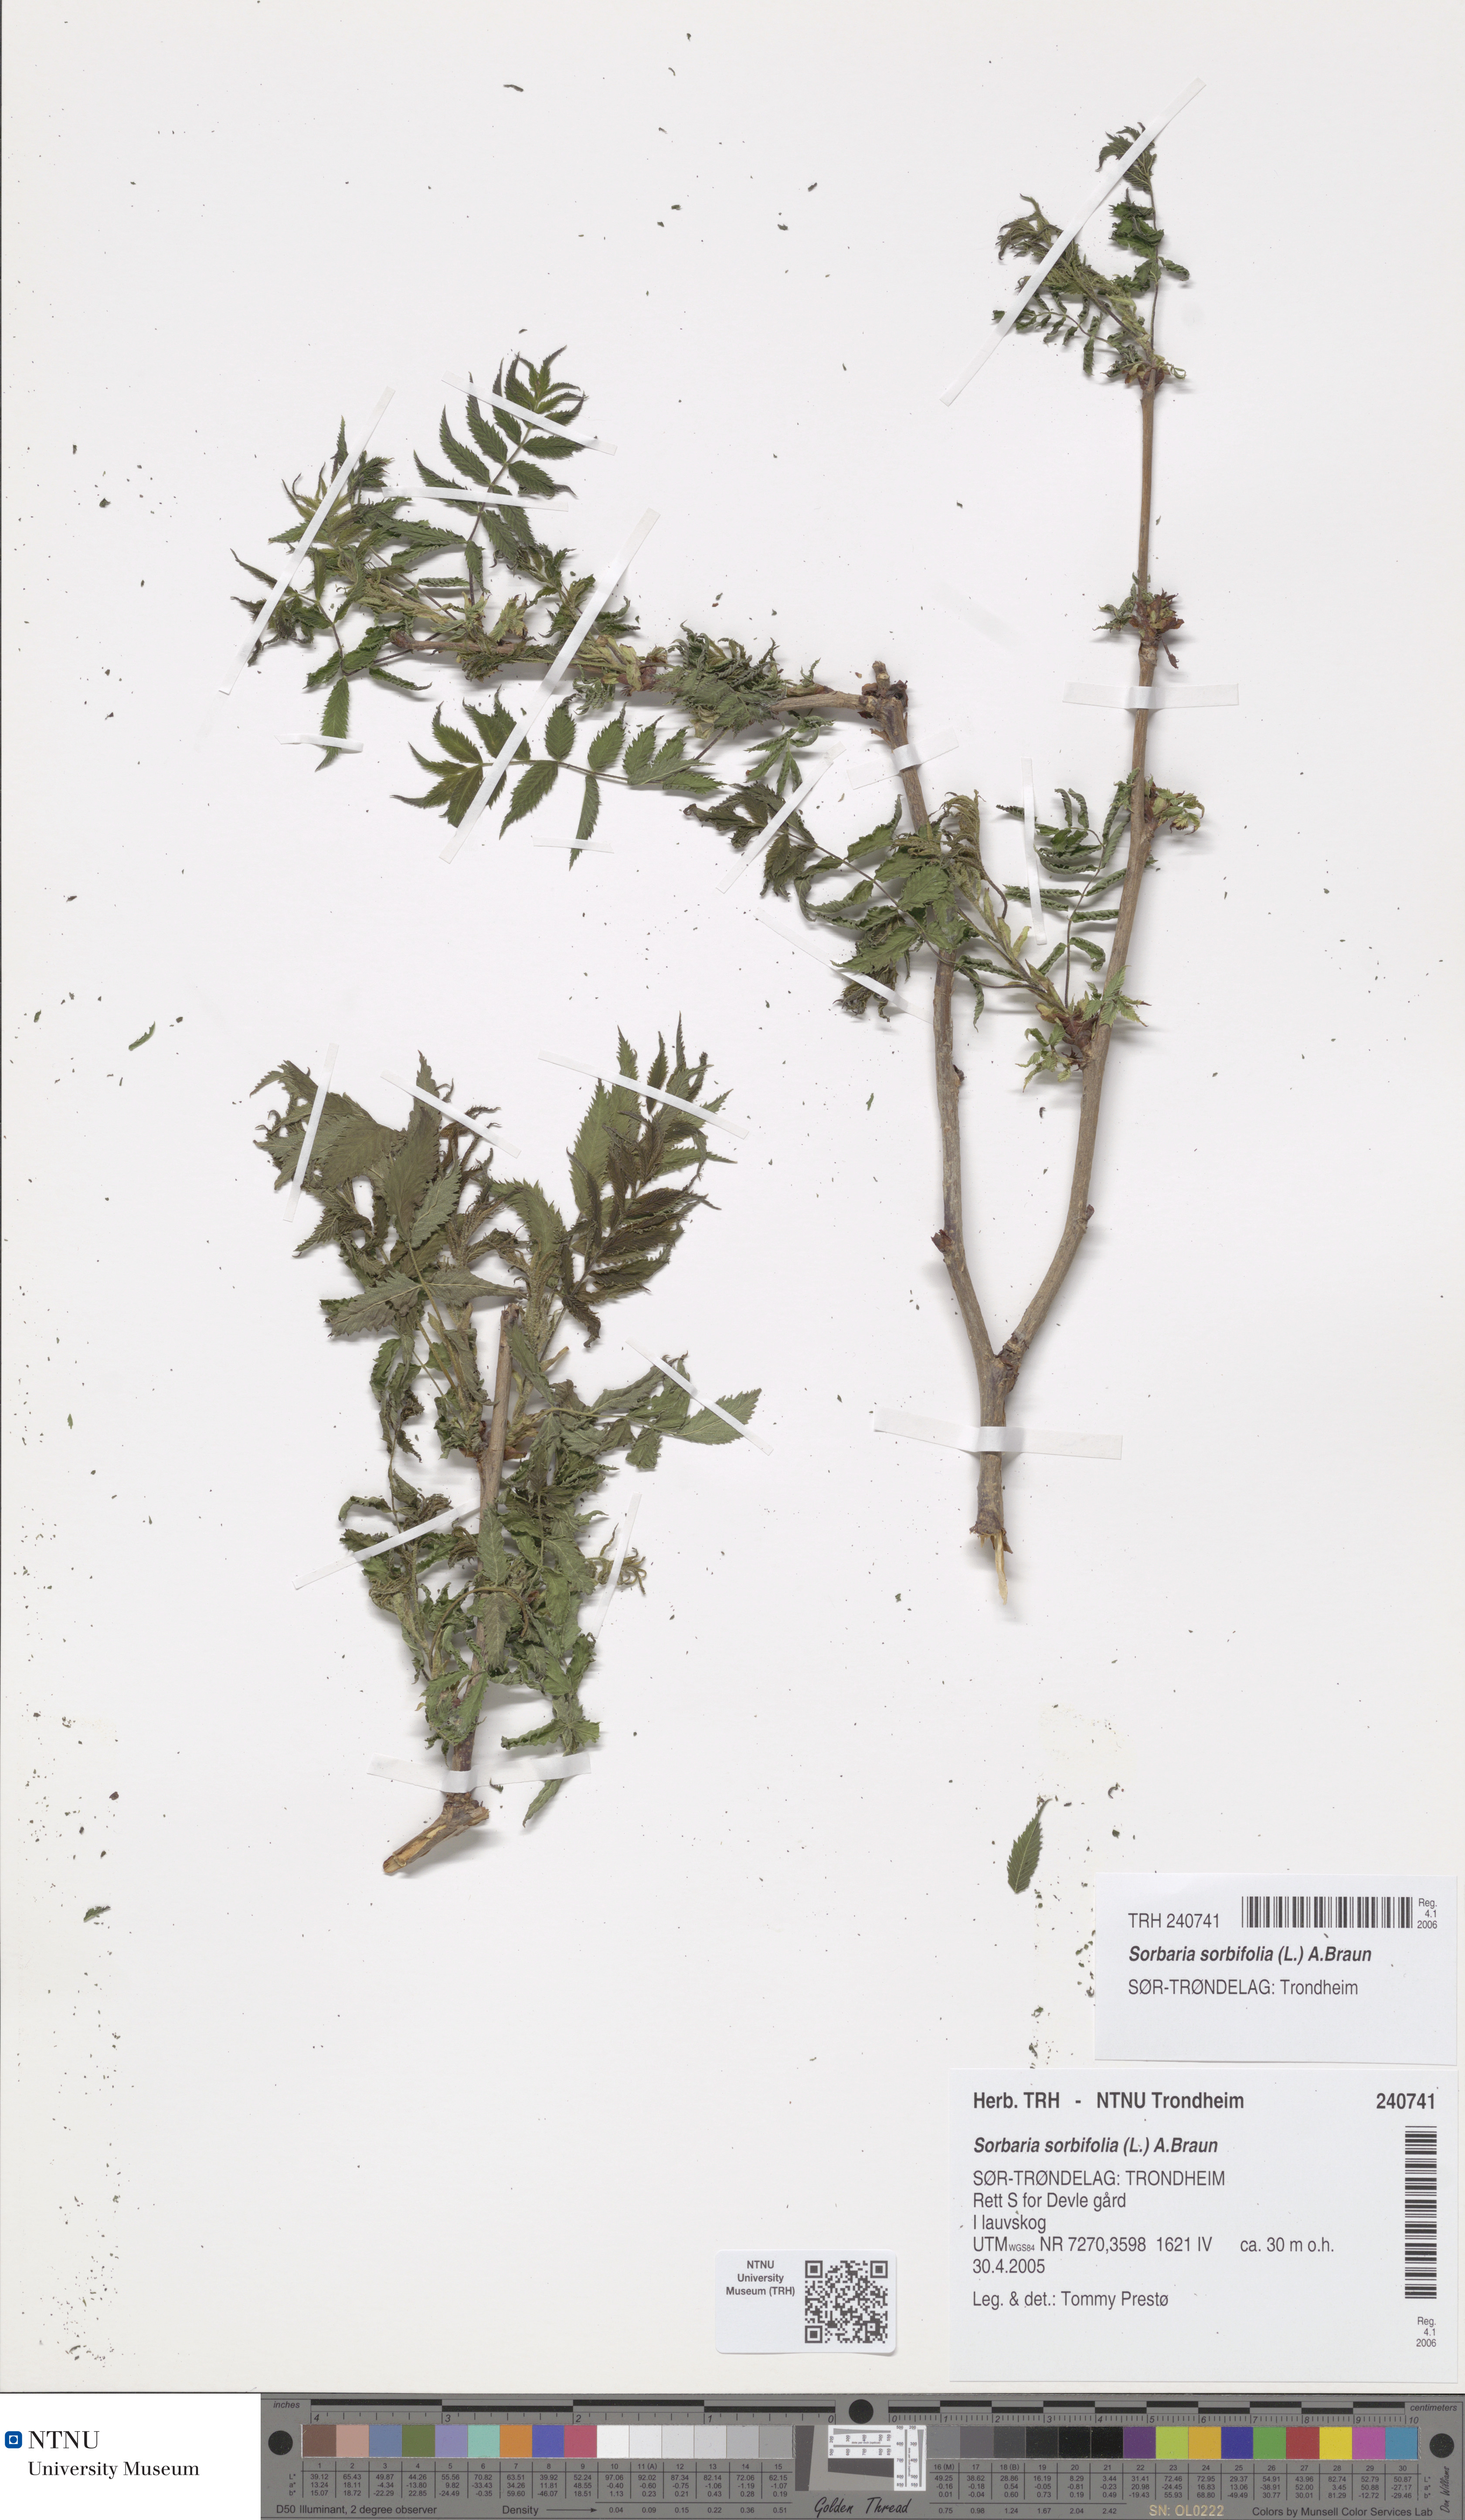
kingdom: Plantae
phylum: Tracheophyta
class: Magnoliopsida
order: Rosales
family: Rosaceae
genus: Sorbaria
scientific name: Sorbaria sorbifolia
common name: False spiraea
